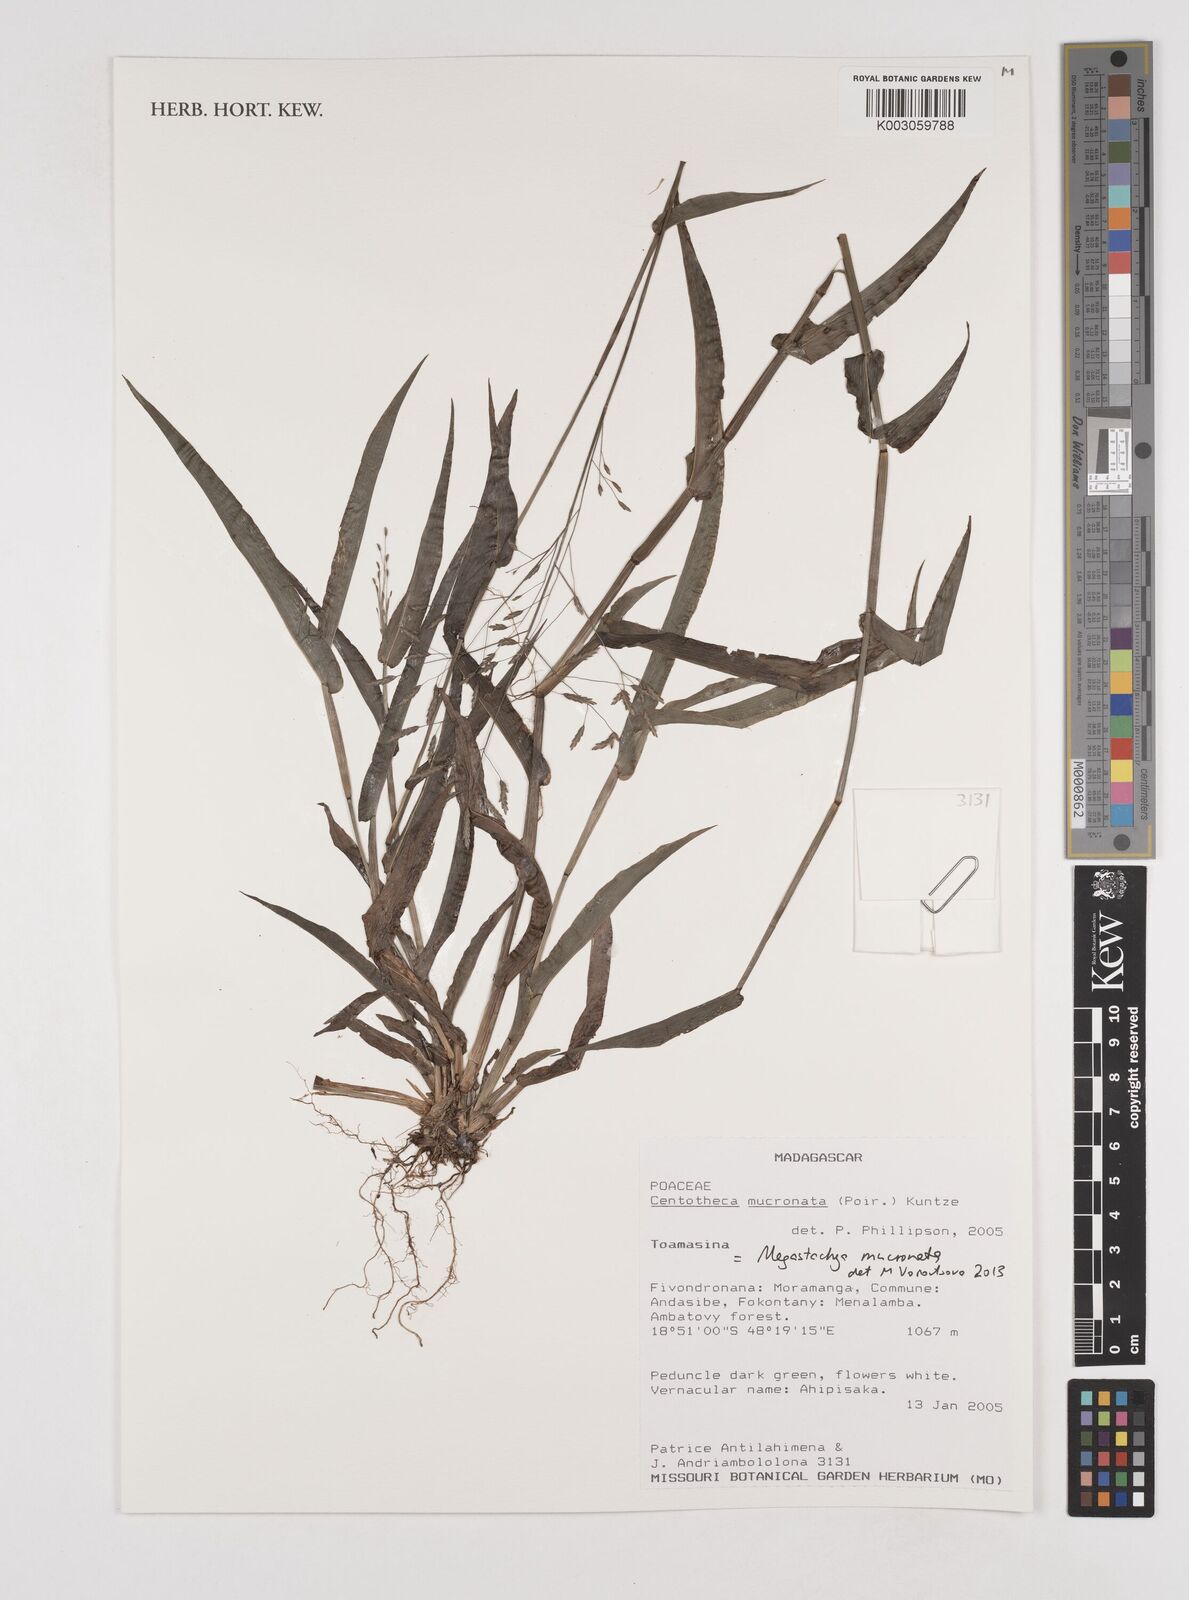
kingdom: Plantae
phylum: Tracheophyta
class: Liliopsida
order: Poales
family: Poaceae
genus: Megastachya
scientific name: Megastachya mucronata
